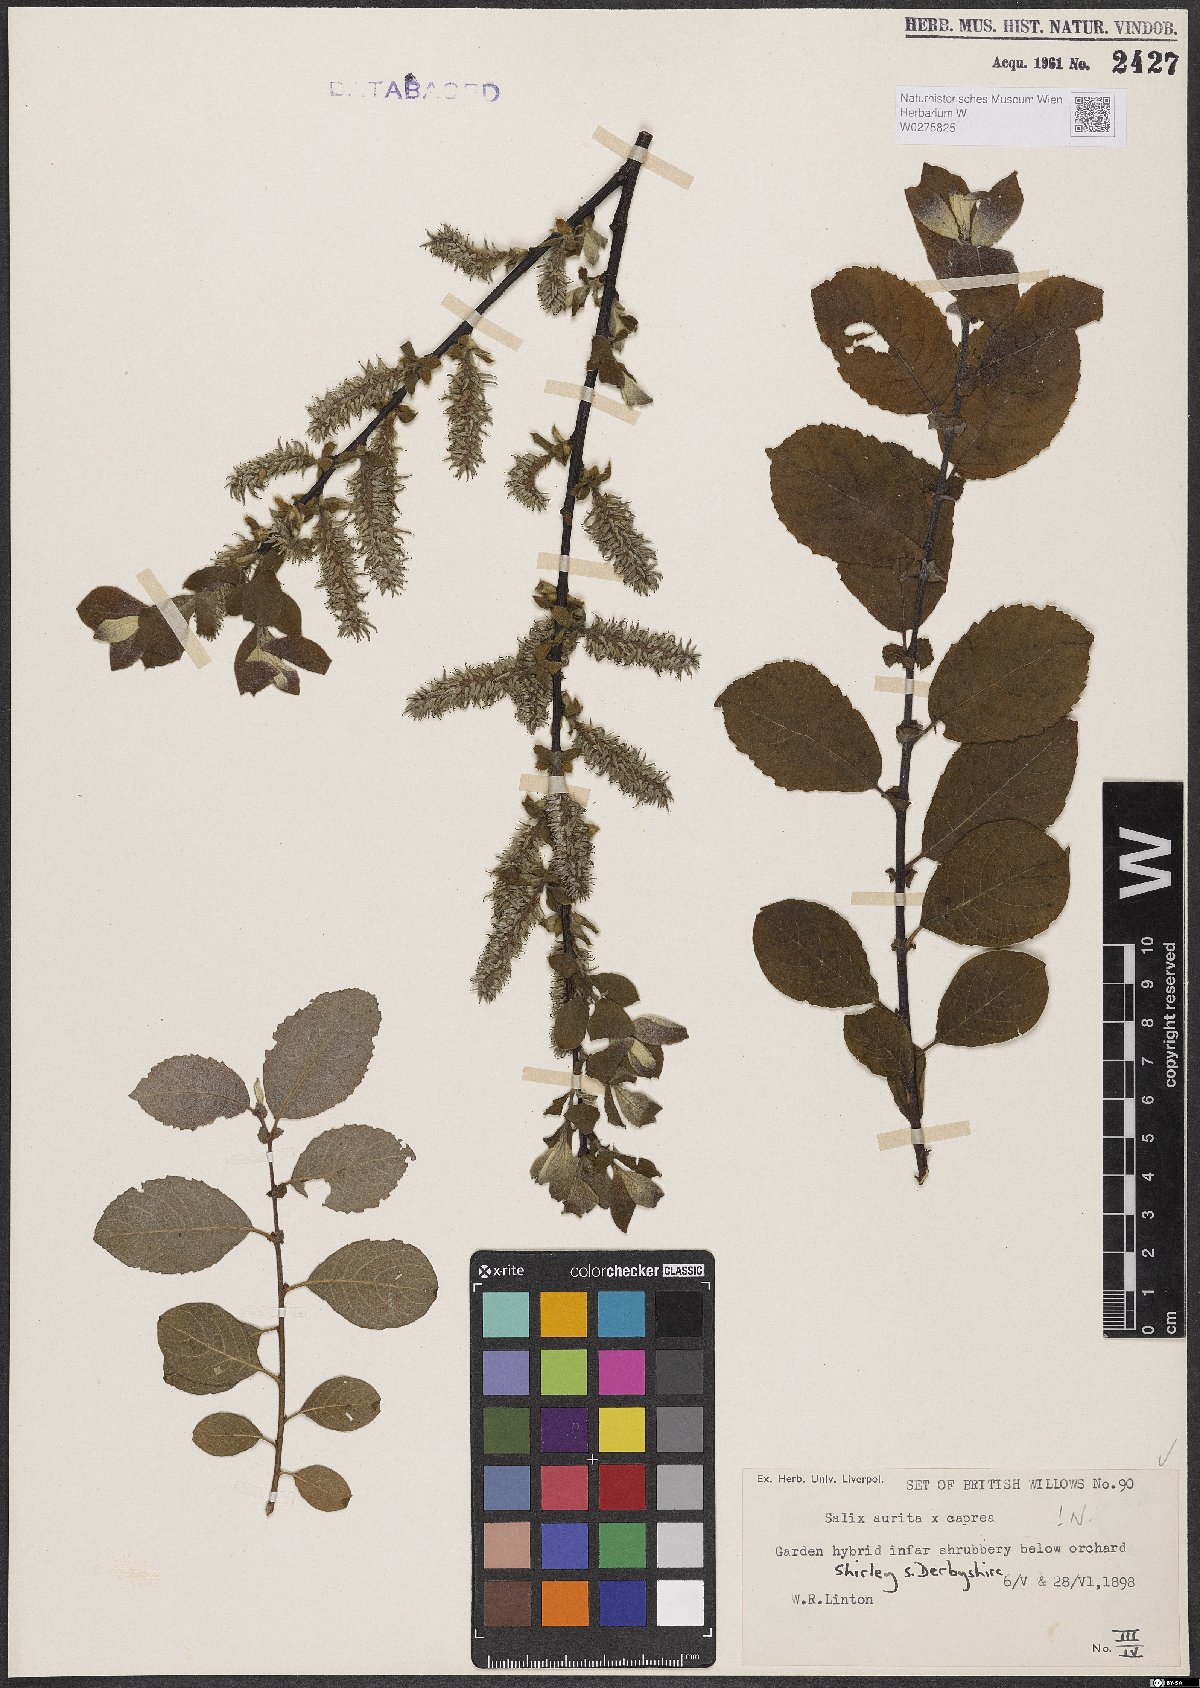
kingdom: Plantae
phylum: Tracheophyta
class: Magnoliopsida
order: Malpighiales
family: Salicaceae
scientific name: Salicaceae
